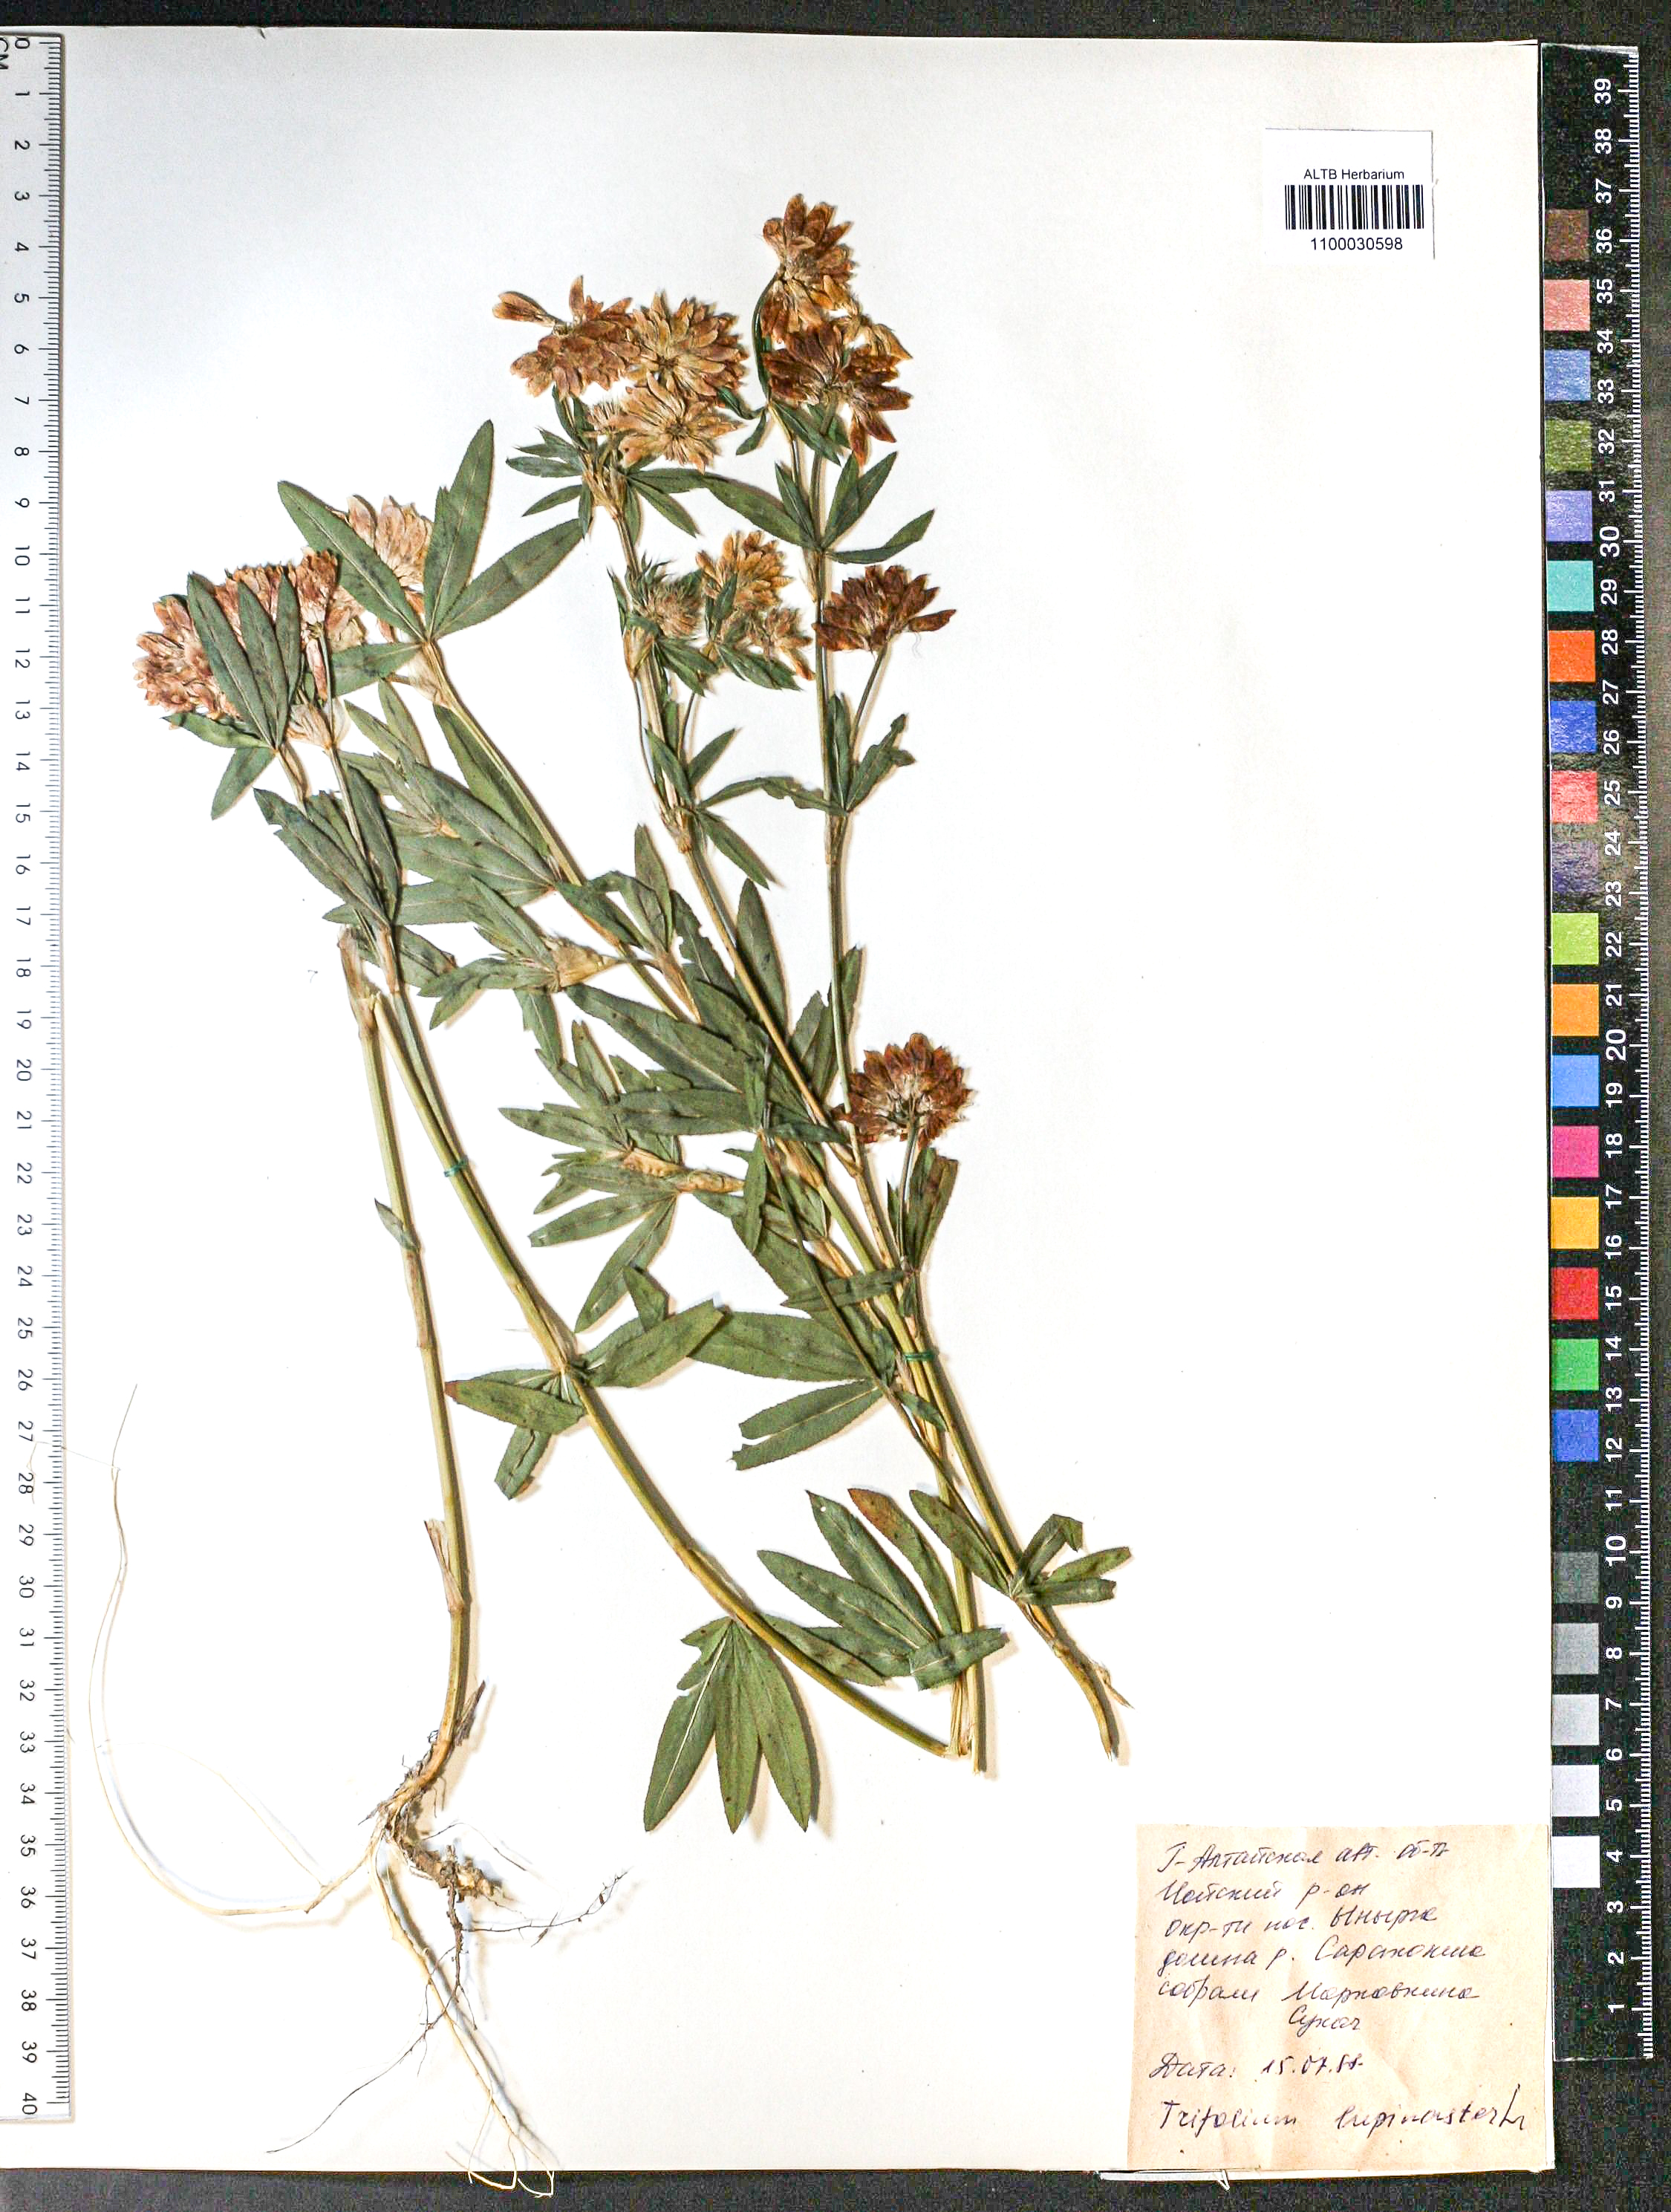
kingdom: Plantae
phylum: Tracheophyta
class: Magnoliopsida
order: Fabales
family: Fabaceae
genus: Trifolium
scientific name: Trifolium lupinaster
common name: Lupine clover
